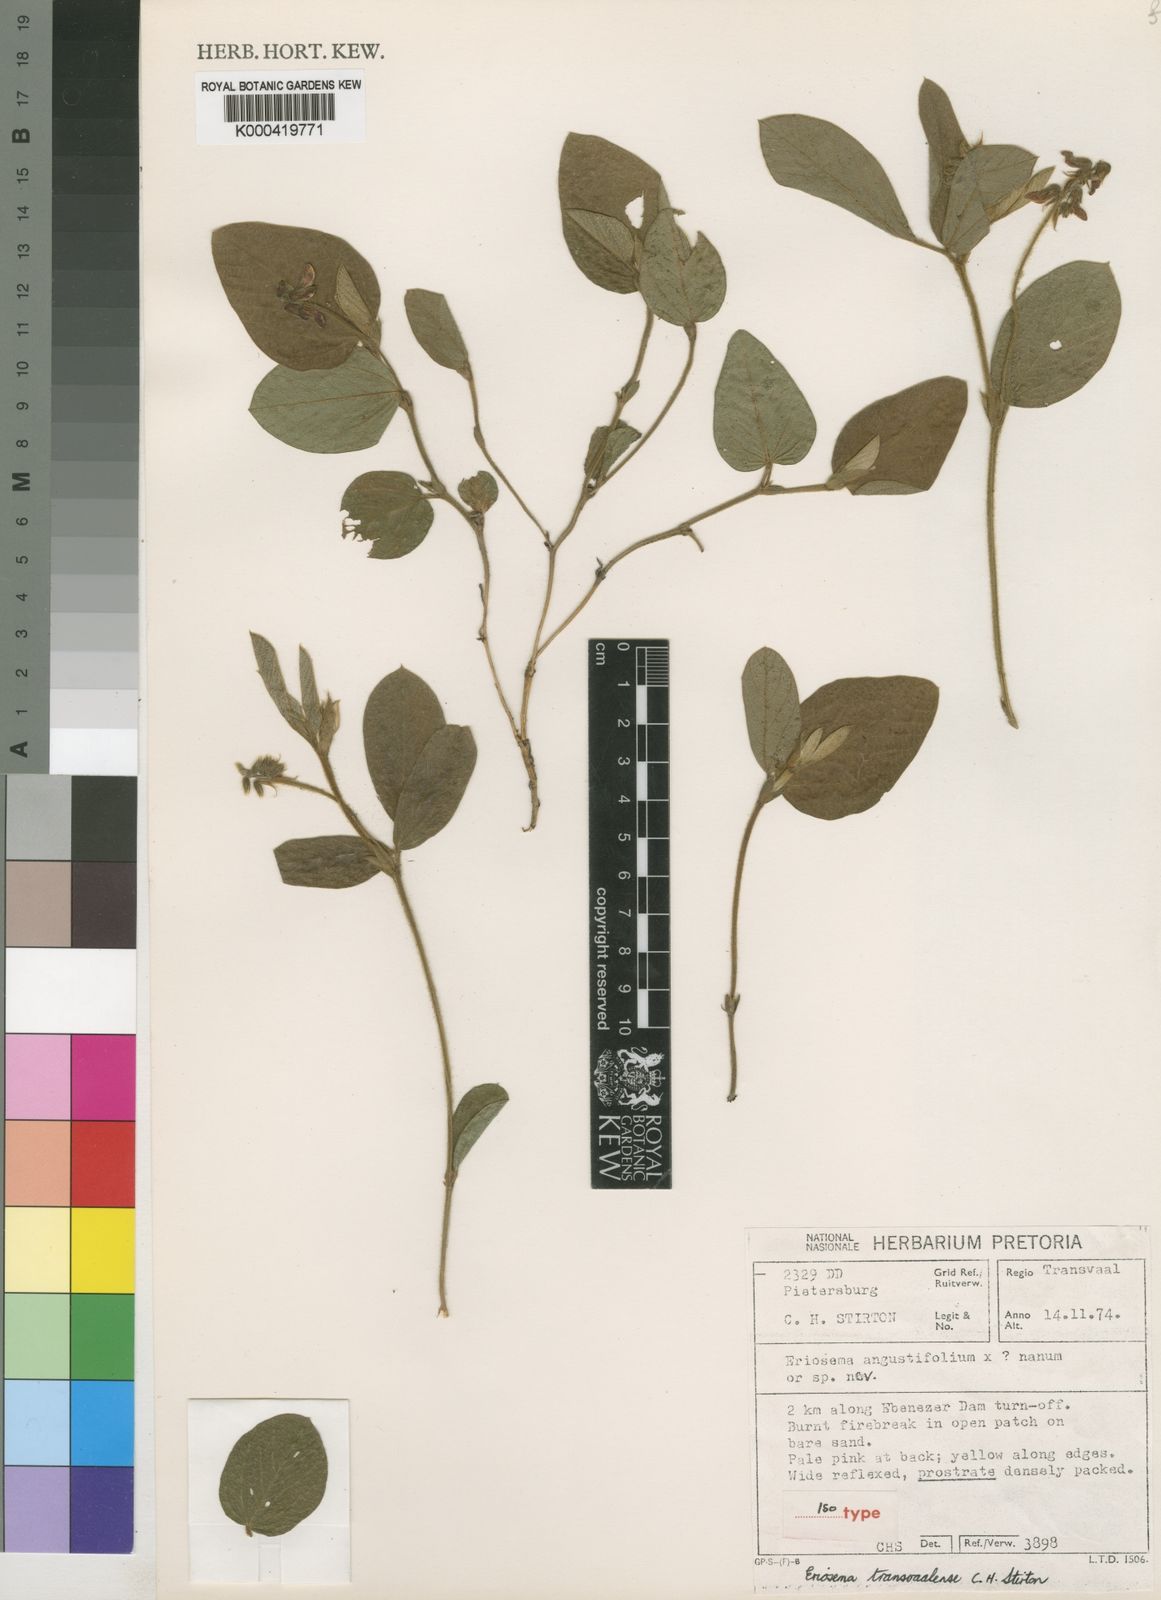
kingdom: Plantae
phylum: Tracheophyta
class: Magnoliopsida
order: Fabales
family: Fabaceae
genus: Eriosema
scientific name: Eriosema transvaalense
